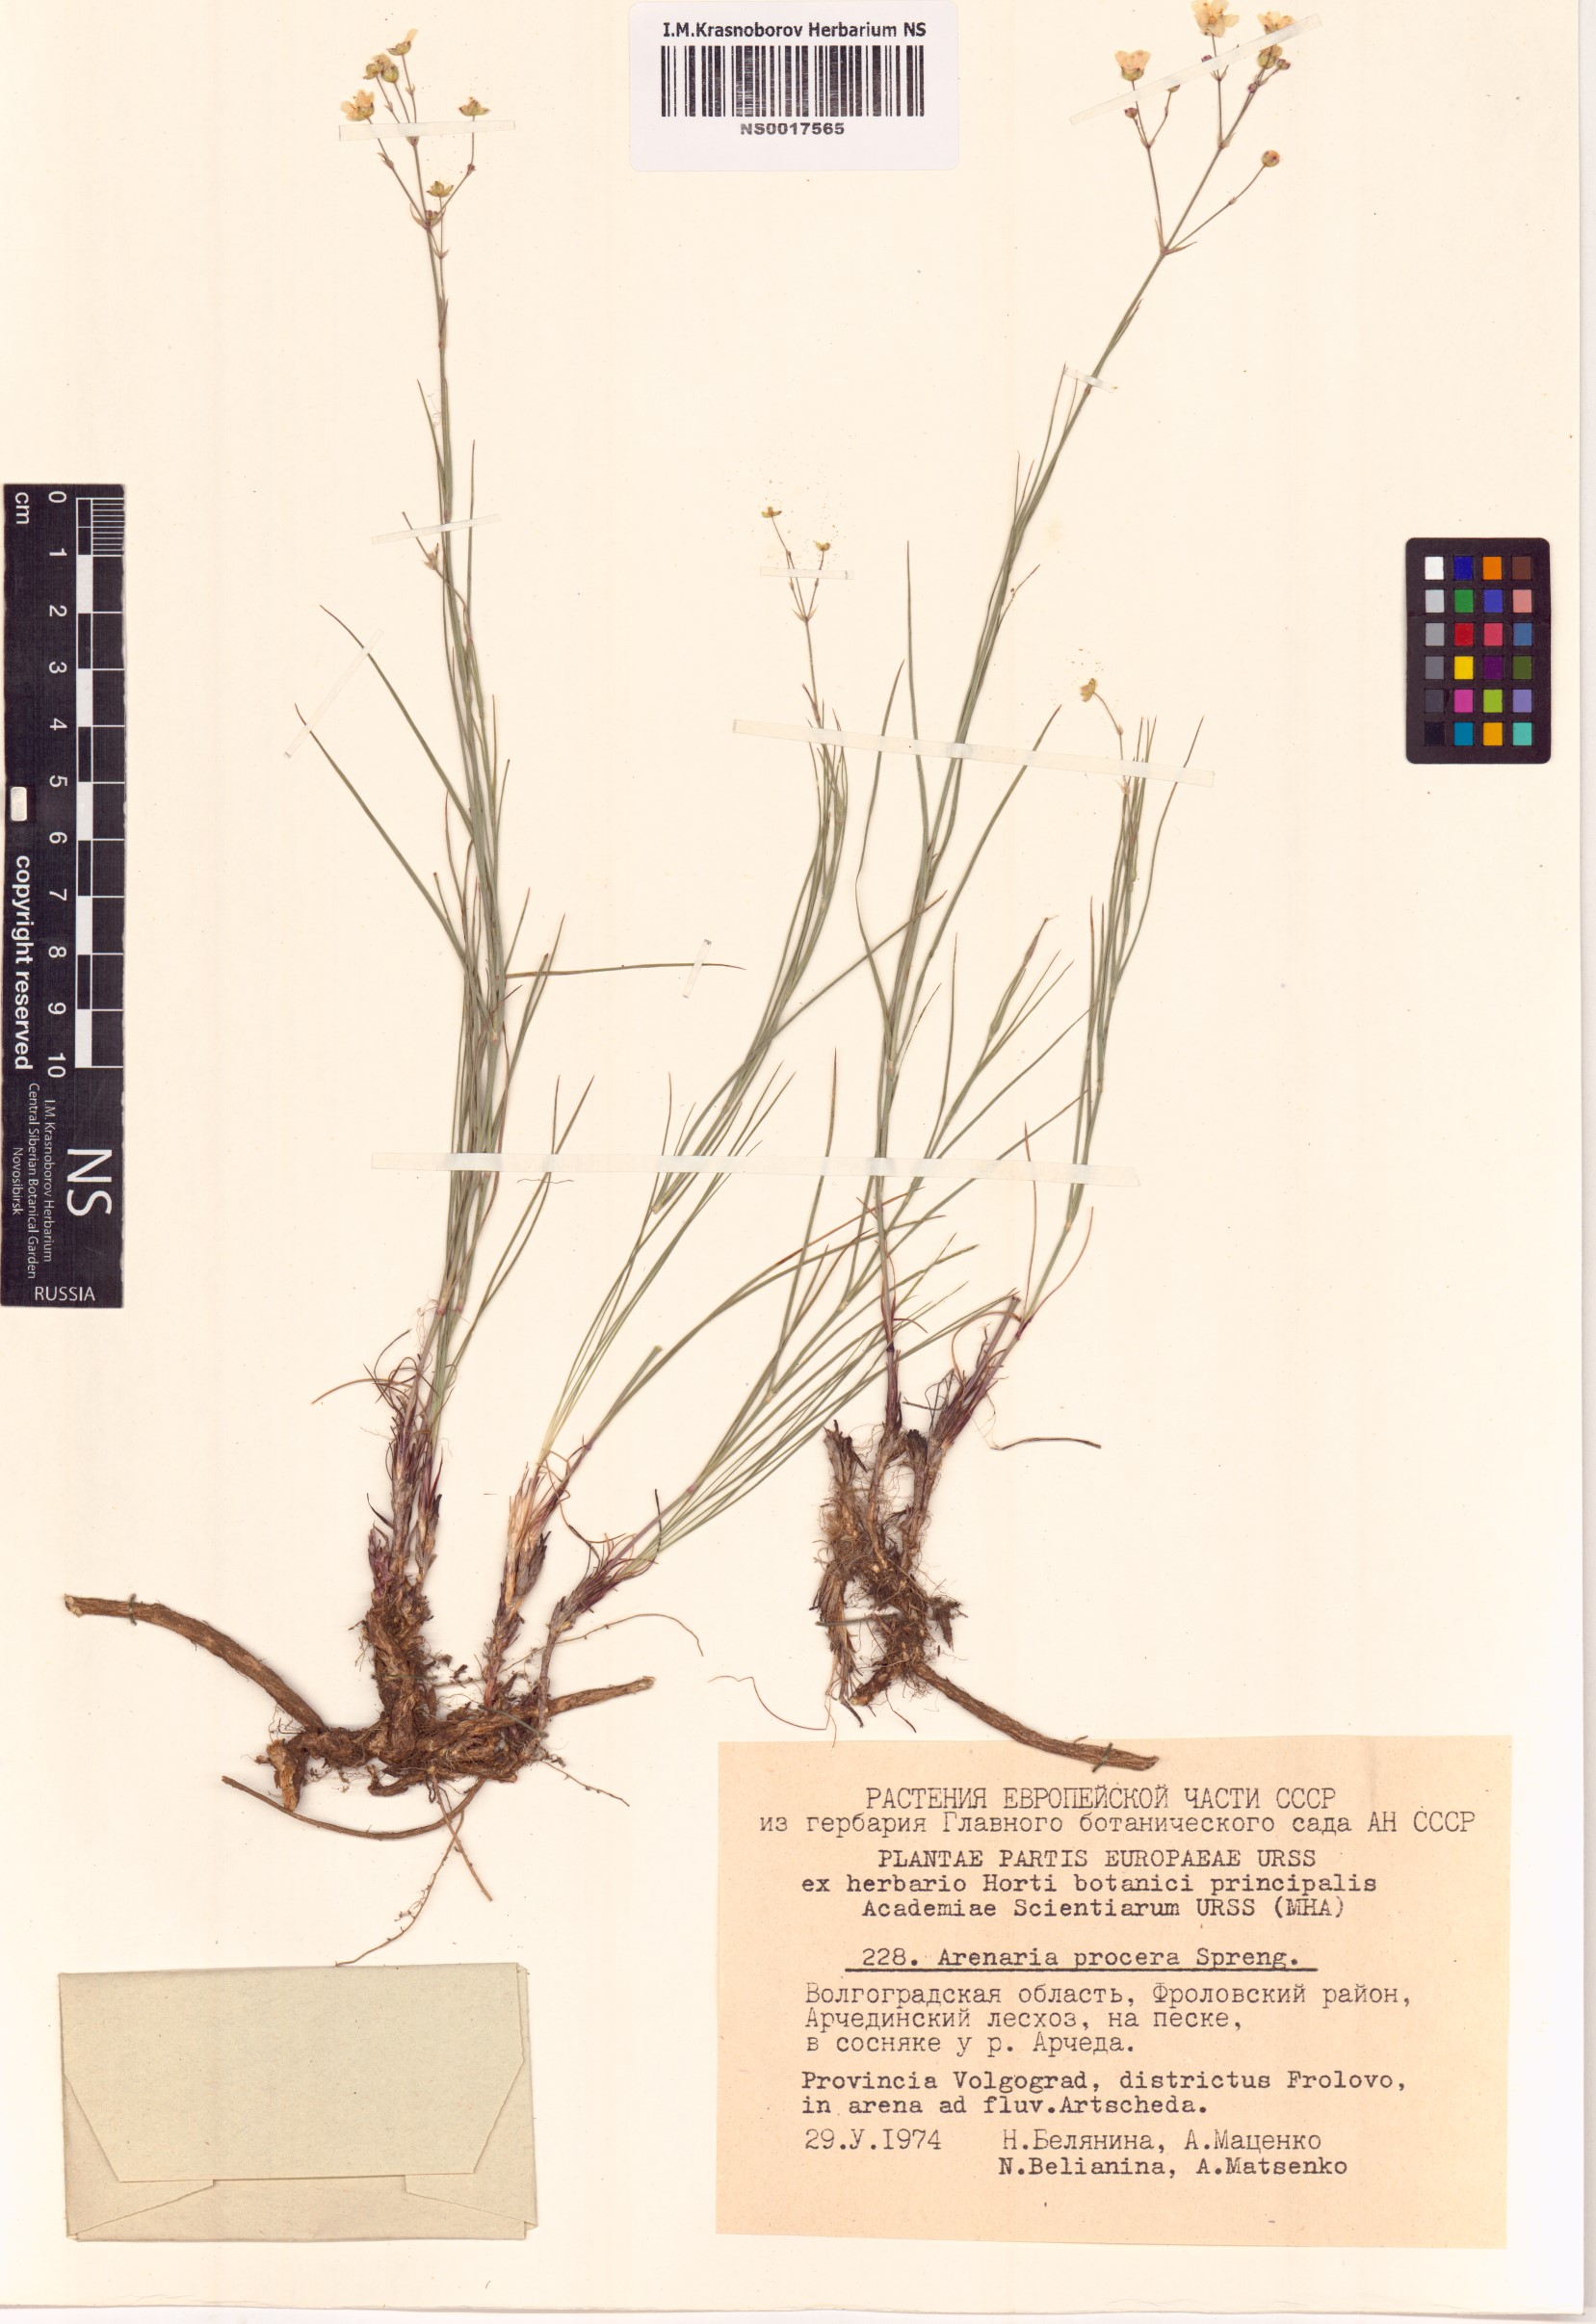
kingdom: Plantae
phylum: Tracheophyta
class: Magnoliopsida
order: Caryophyllales
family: Caryophyllaceae
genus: Eremogone
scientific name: Eremogone saxatilis
